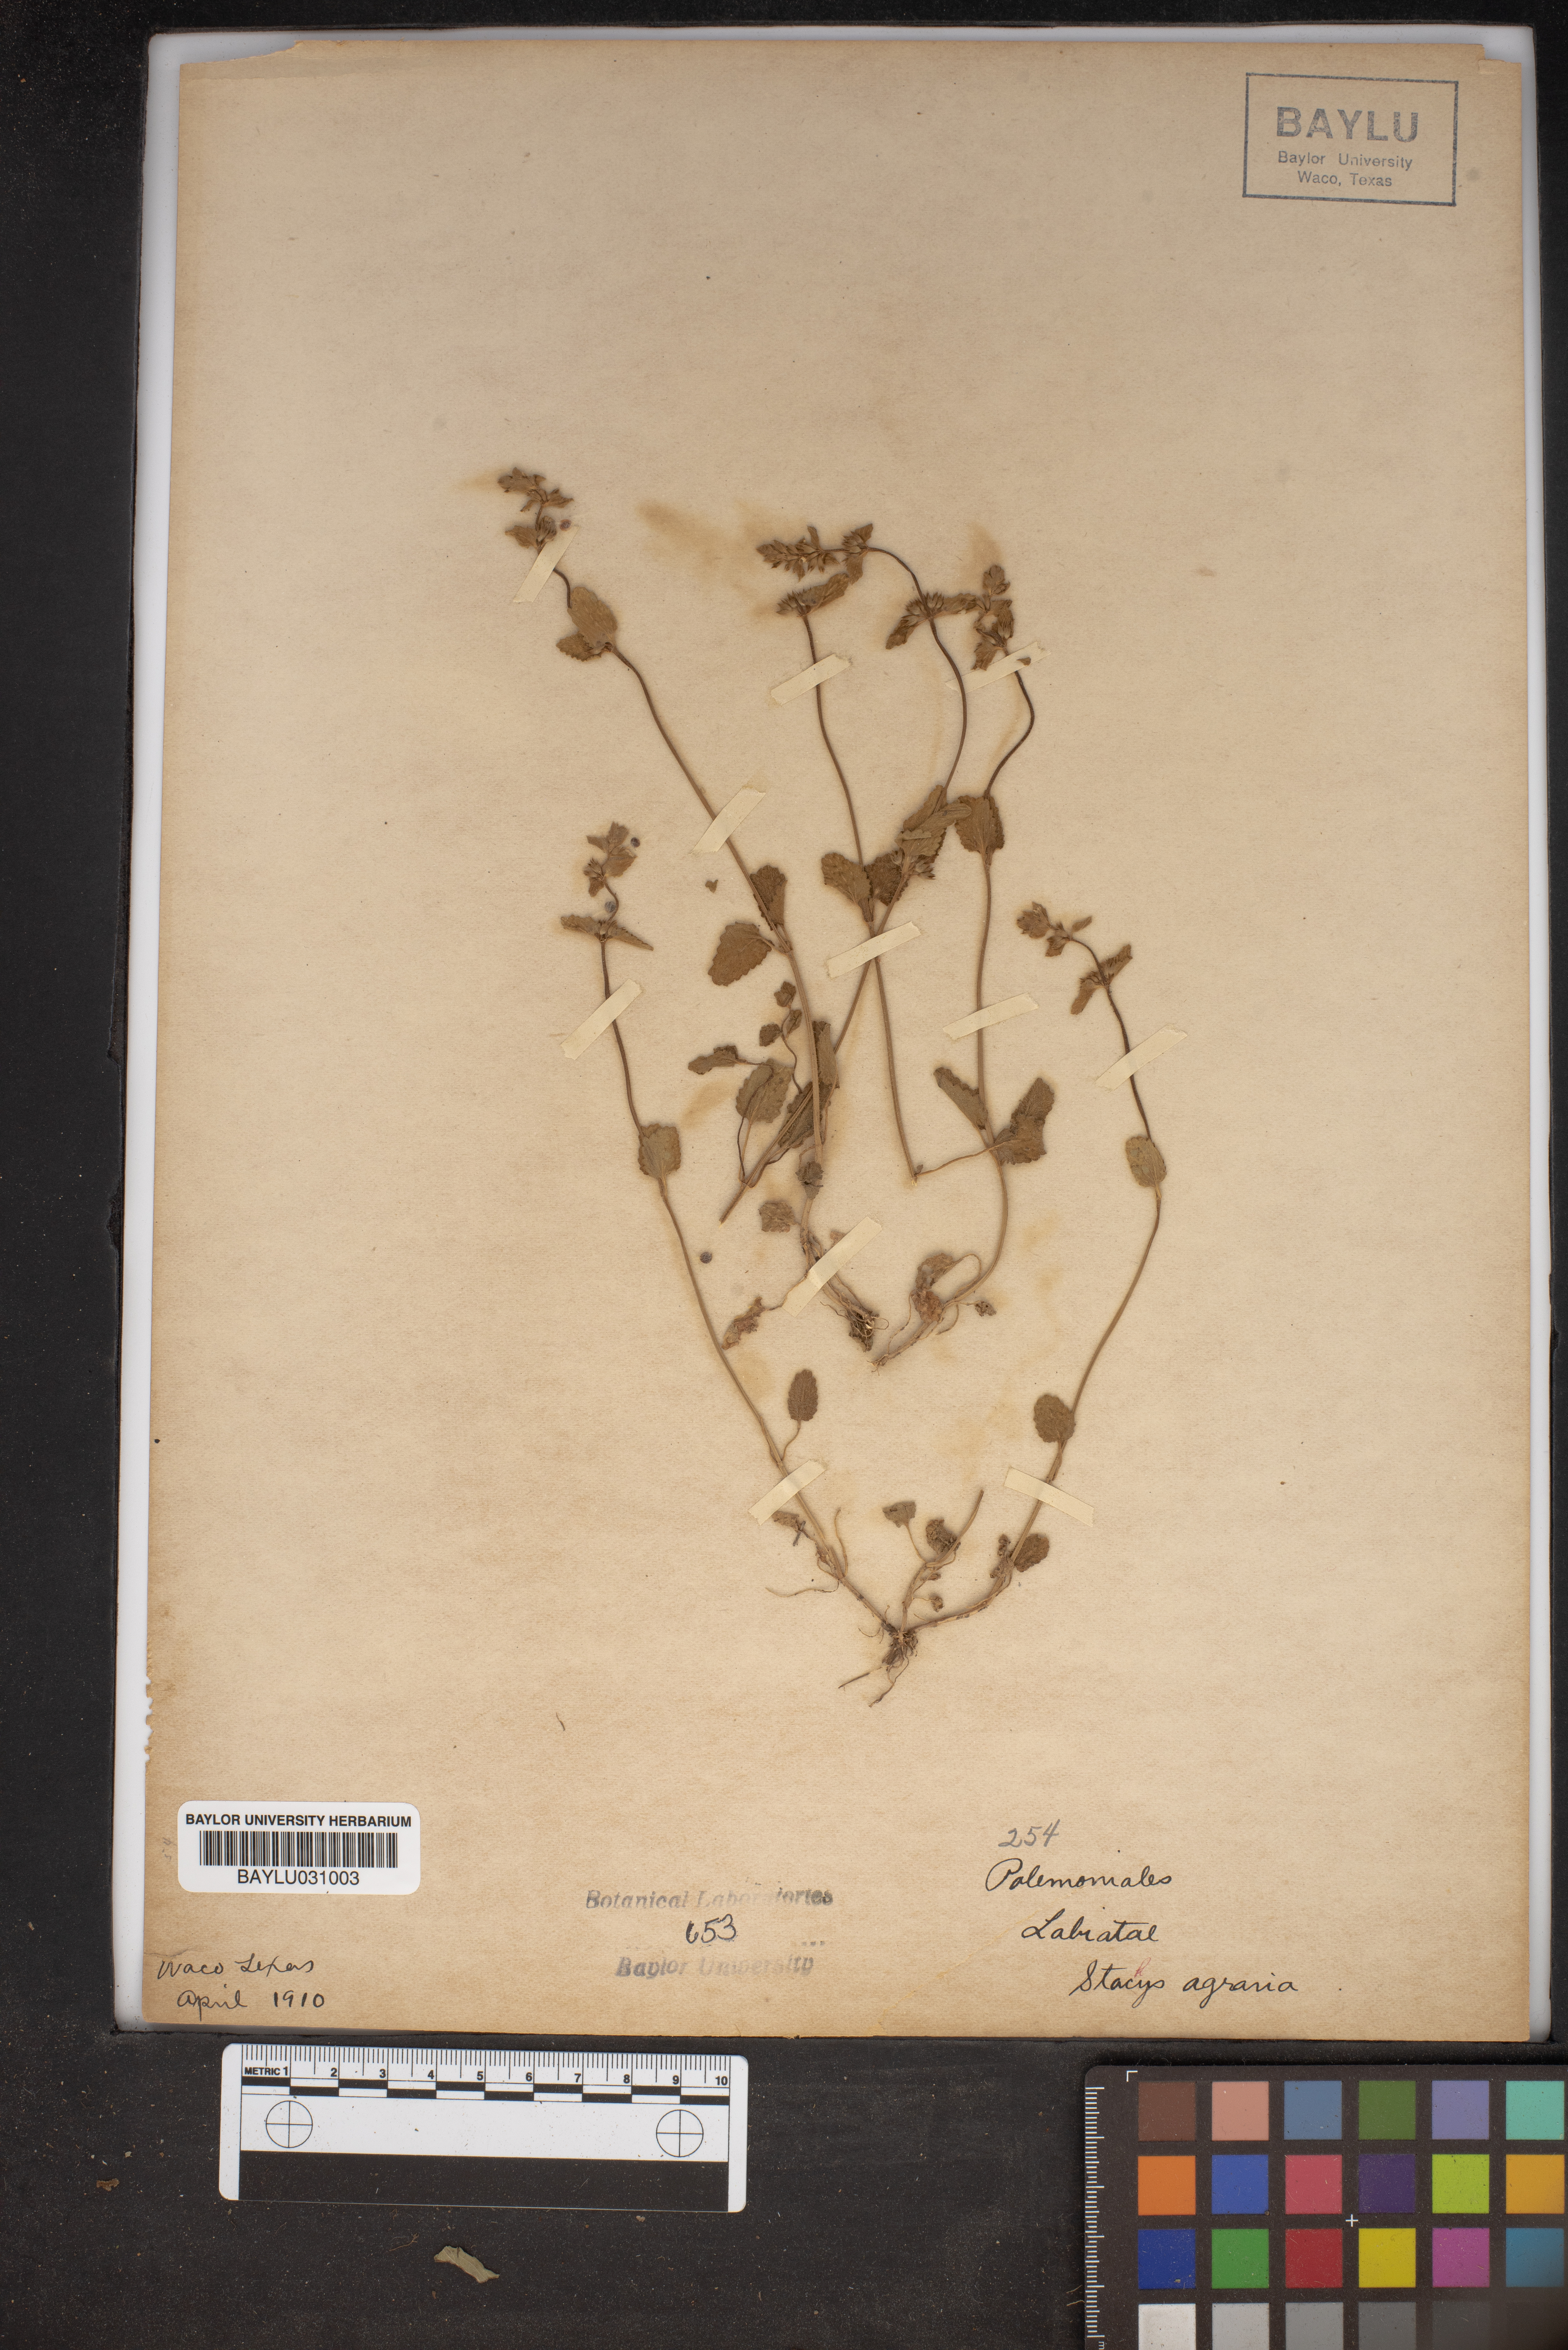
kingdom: Plantae
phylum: Tracheophyta
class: Magnoliopsida
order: Lamiales
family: Lamiaceae
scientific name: Lamiaceae
